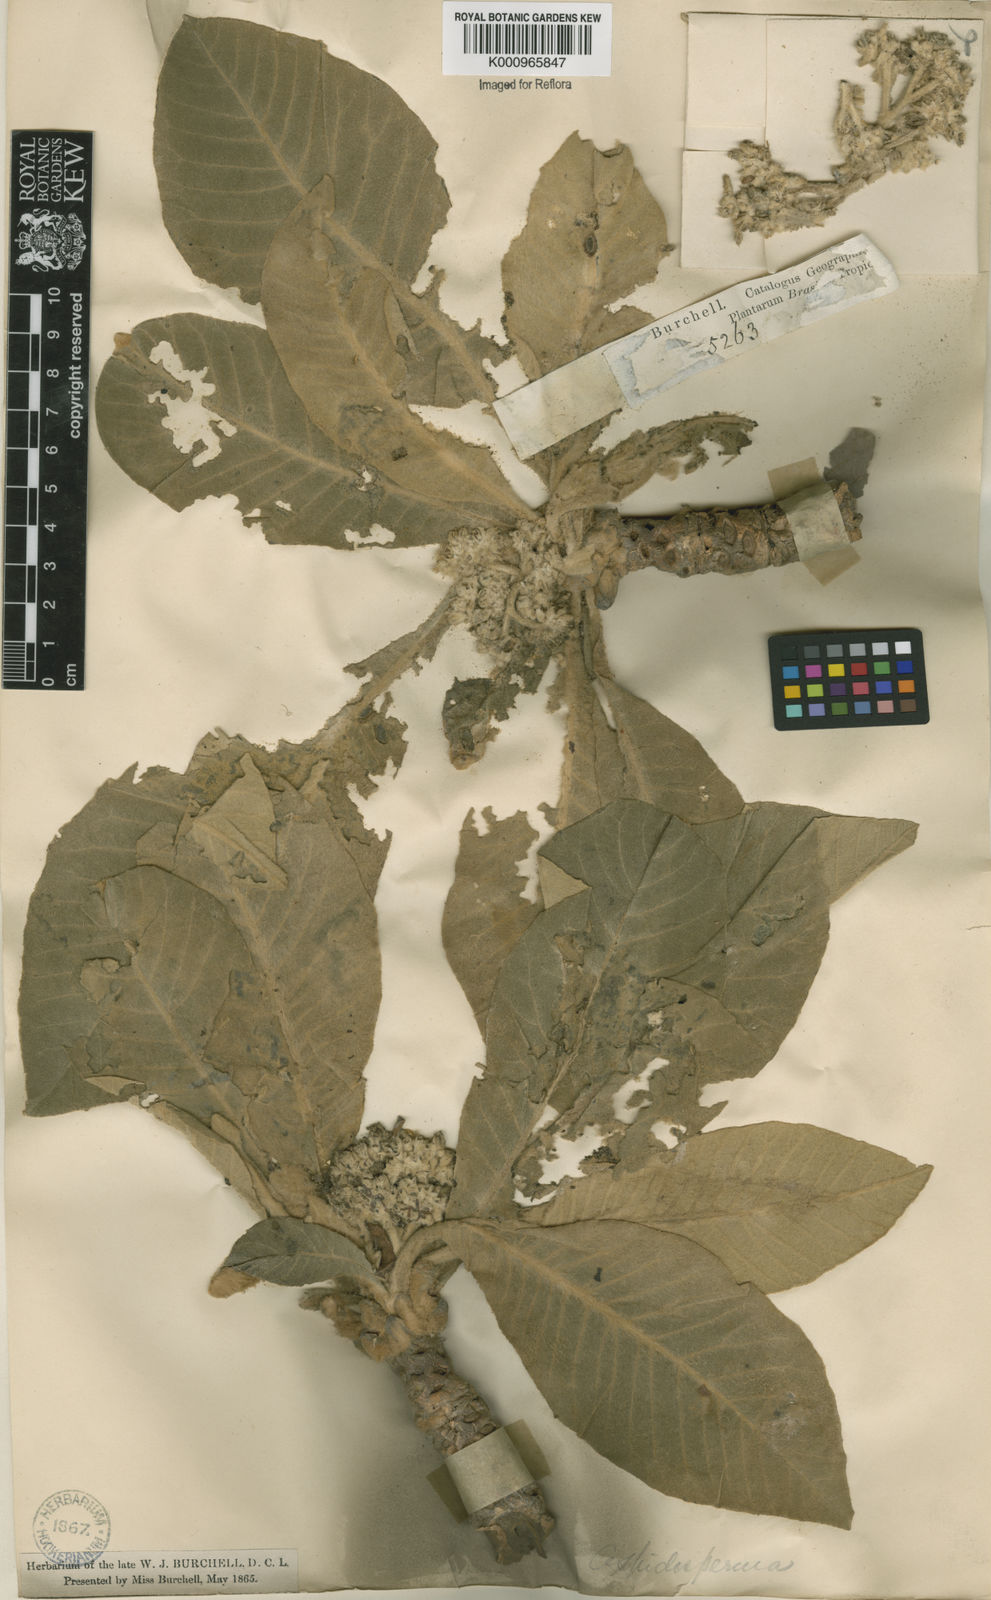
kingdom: Plantae
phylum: Tracheophyta
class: Magnoliopsida
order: Gentianales
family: Apocynaceae
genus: Aspidosperma
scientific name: Aspidosperma tomentosum
